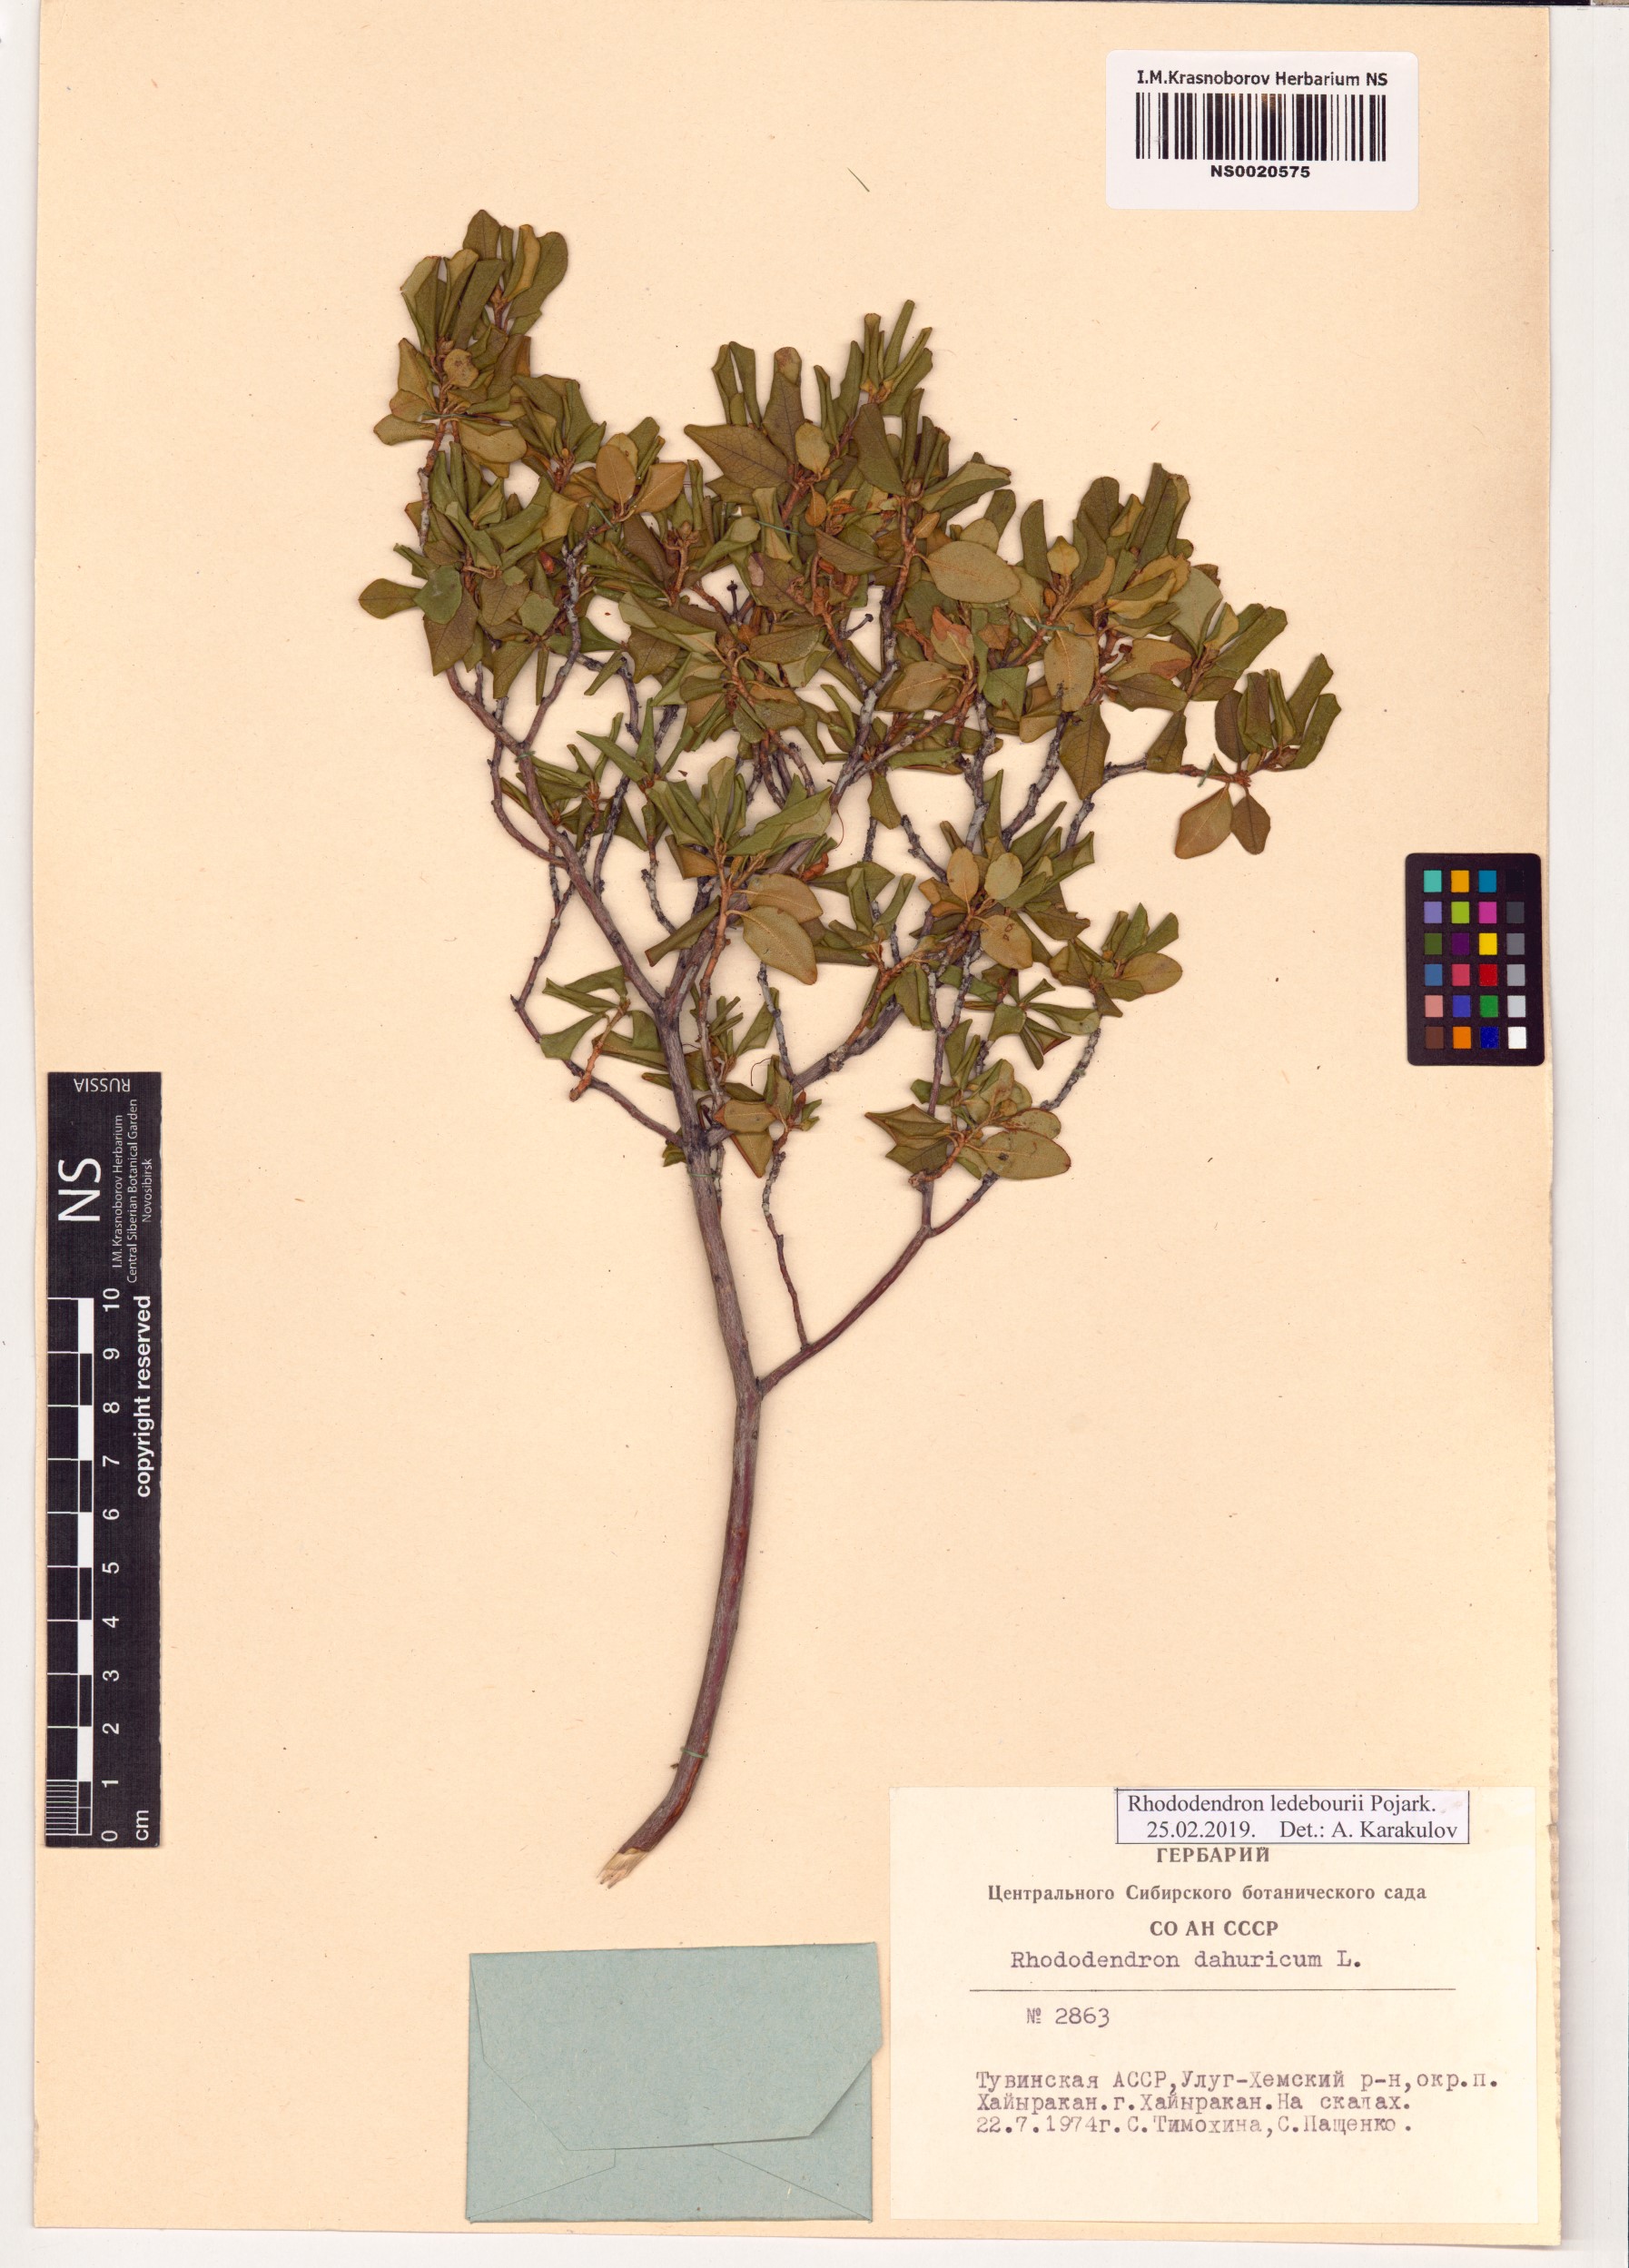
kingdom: Plantae
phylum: Tracheophyta
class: Magnoliopsida
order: Ericales
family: Ericaceae
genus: Rhododendron
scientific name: Rhododendron dauricum
